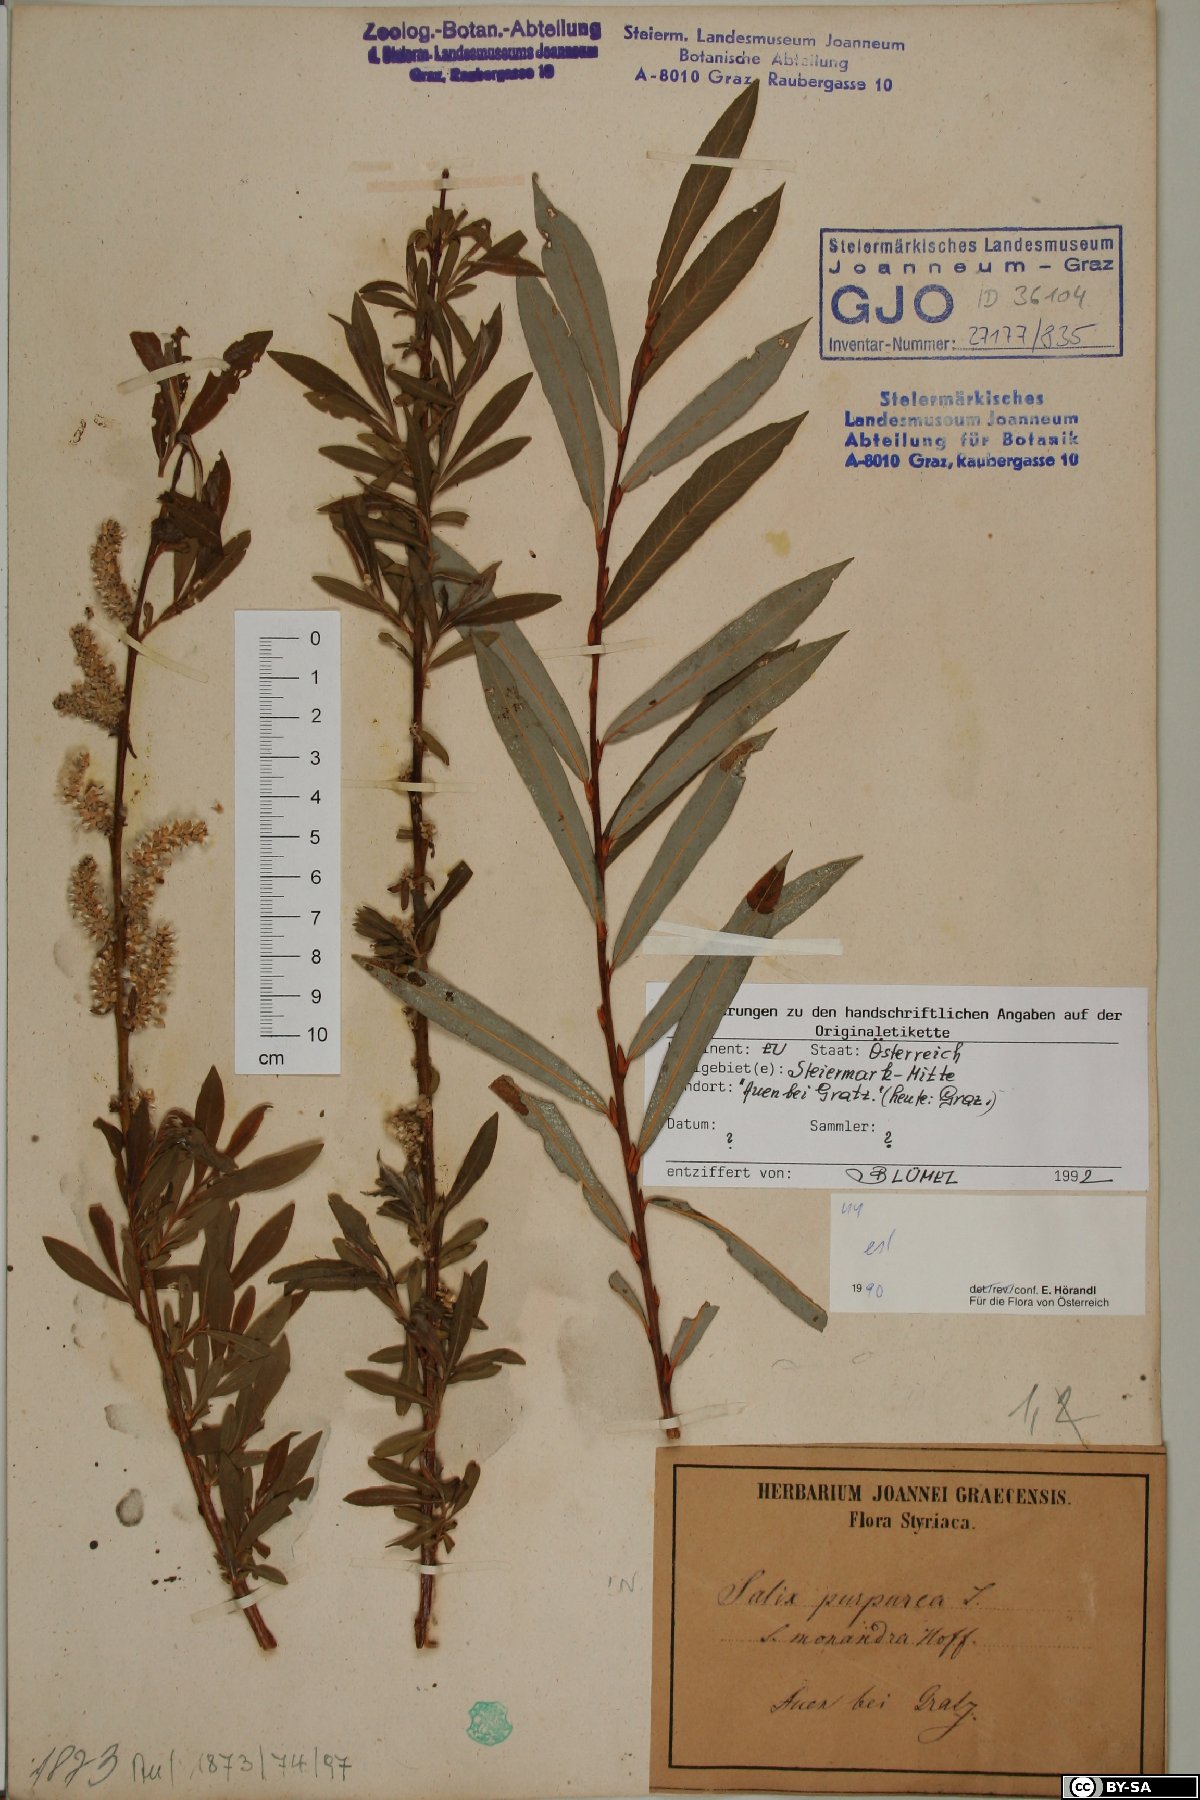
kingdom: Plantae
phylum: Tracheophyta
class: Magnoliopsida
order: Malpighiales
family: Salicaceae
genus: Salix
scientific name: Salix purpurea
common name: Purple willow
